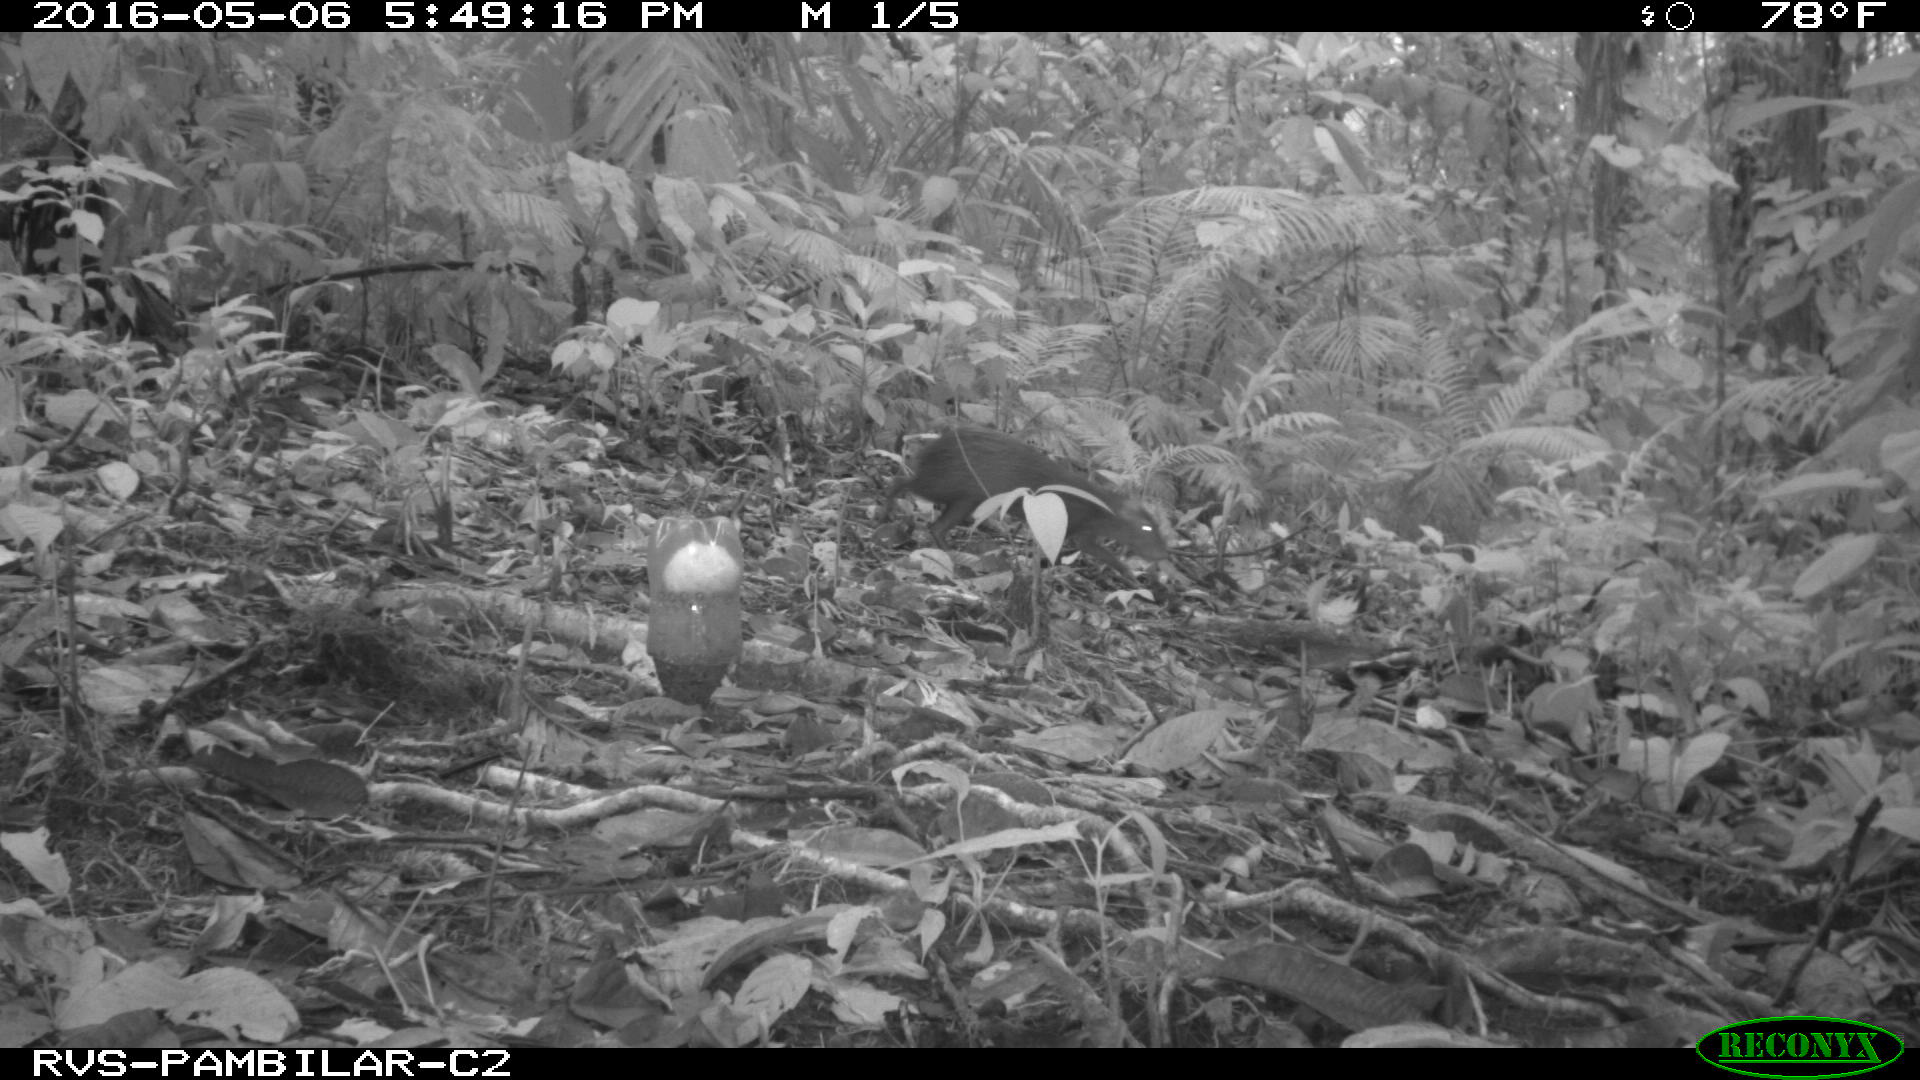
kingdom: Animalia
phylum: Chordata
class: Mammalia
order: Rodentia
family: Dasyproctidae
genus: Dasyprocta
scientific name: Dasyprocta punctata
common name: Central american agouti
